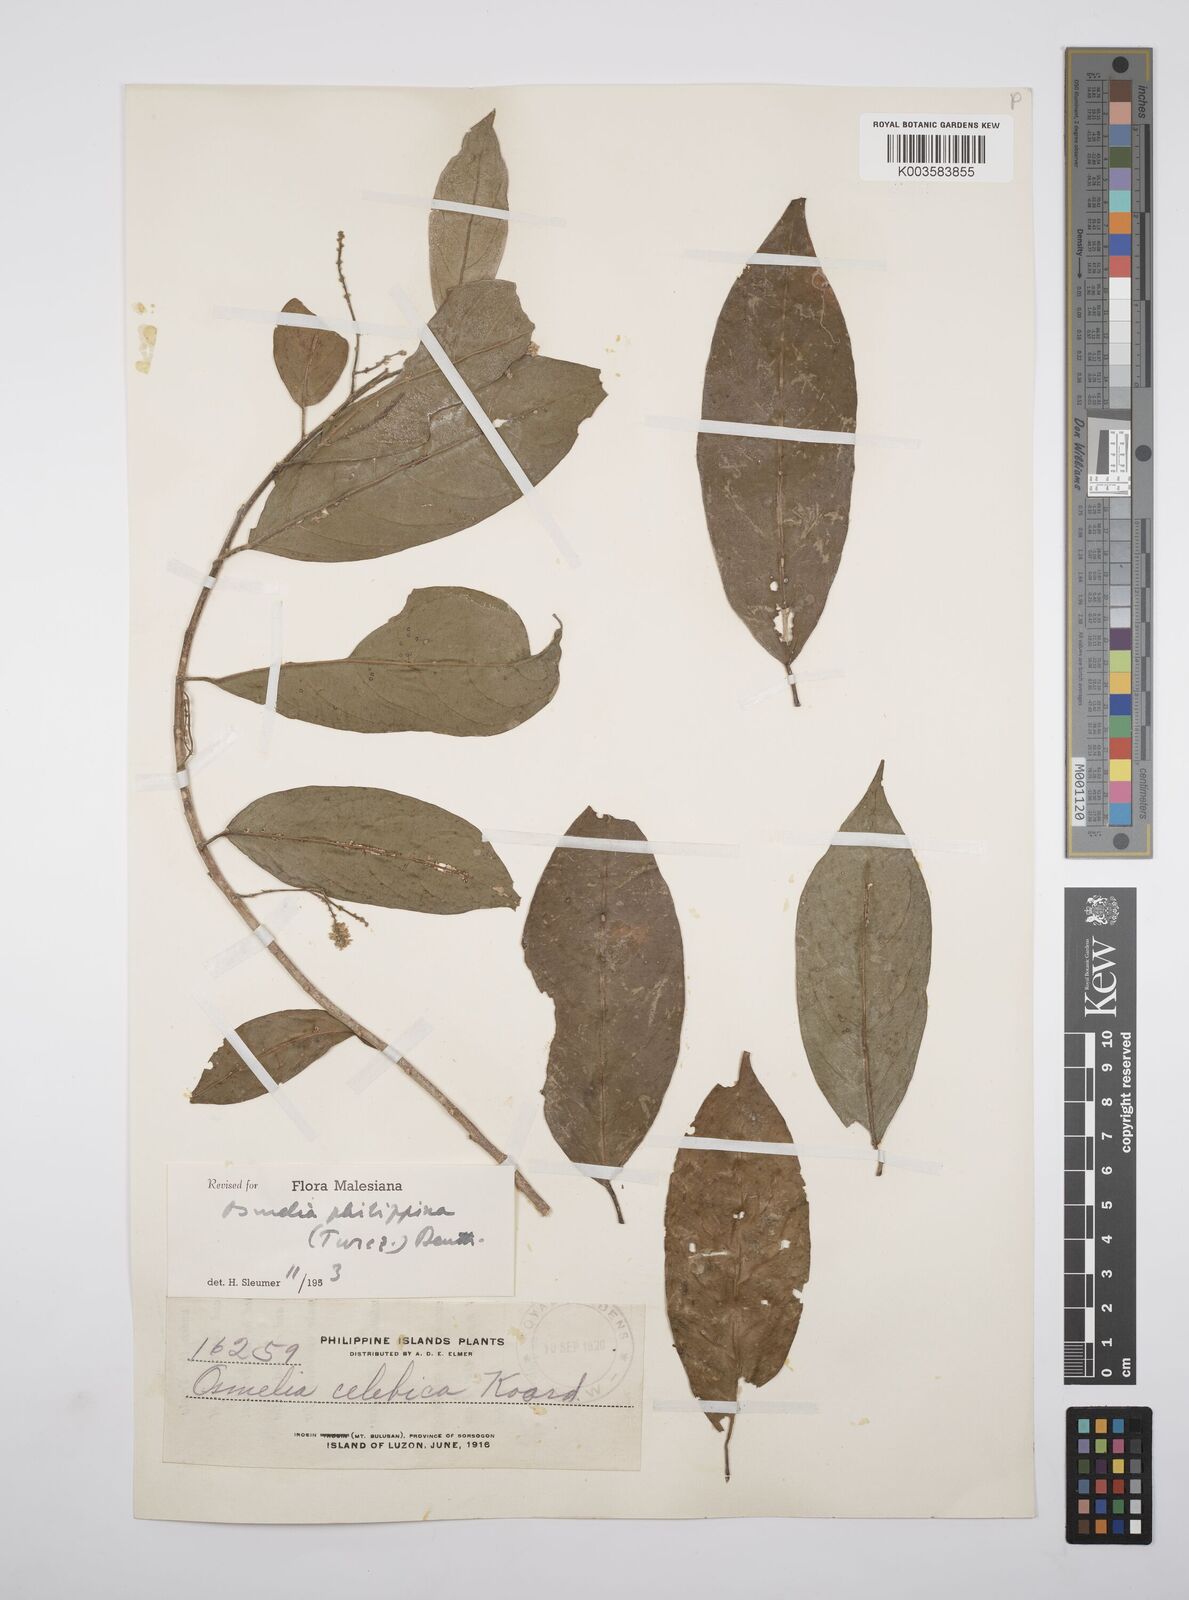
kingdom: Plantae
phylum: Tracheophyta
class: Magnoliopsida
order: Malpighiales
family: Salicaceae
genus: Osmelia
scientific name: Osmelia philippina
